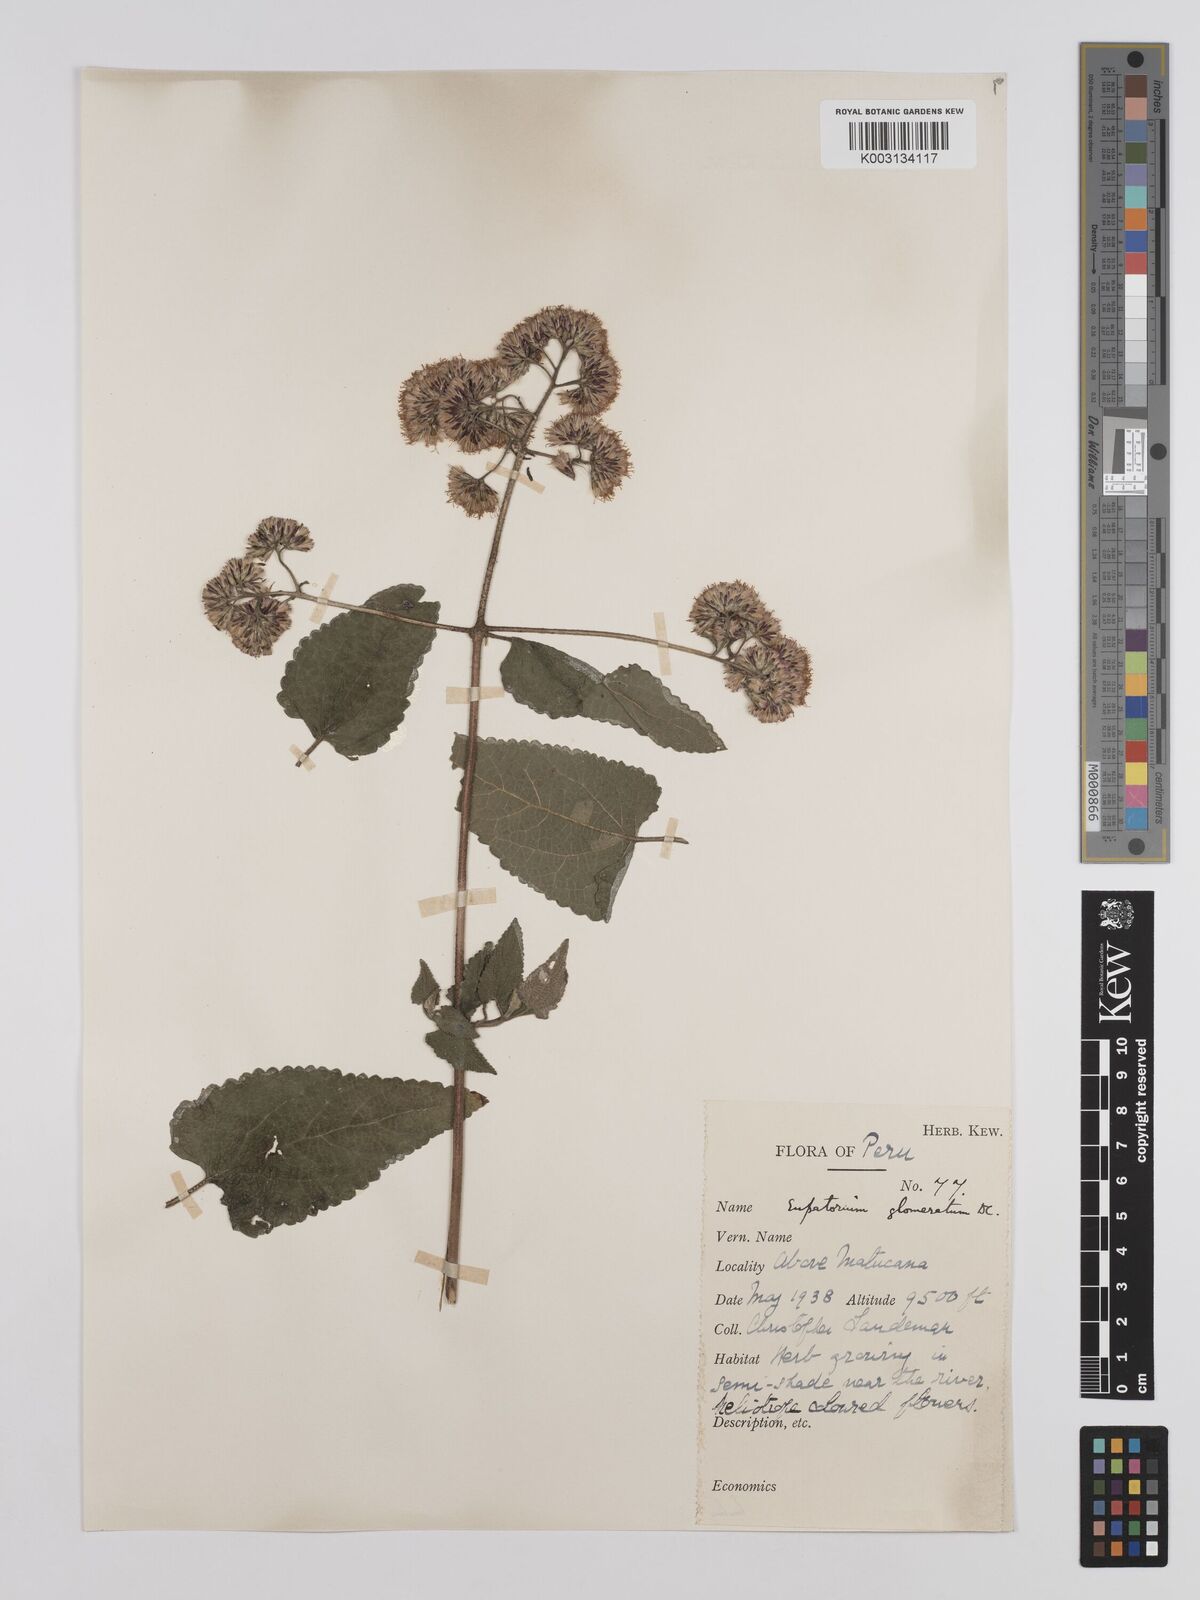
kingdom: Plantae
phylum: Tracheophyta
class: Magnoliopsida
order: Asterales
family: Asteraceae
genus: Cronquistianthus
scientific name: Cronquistianthus glomeratus
